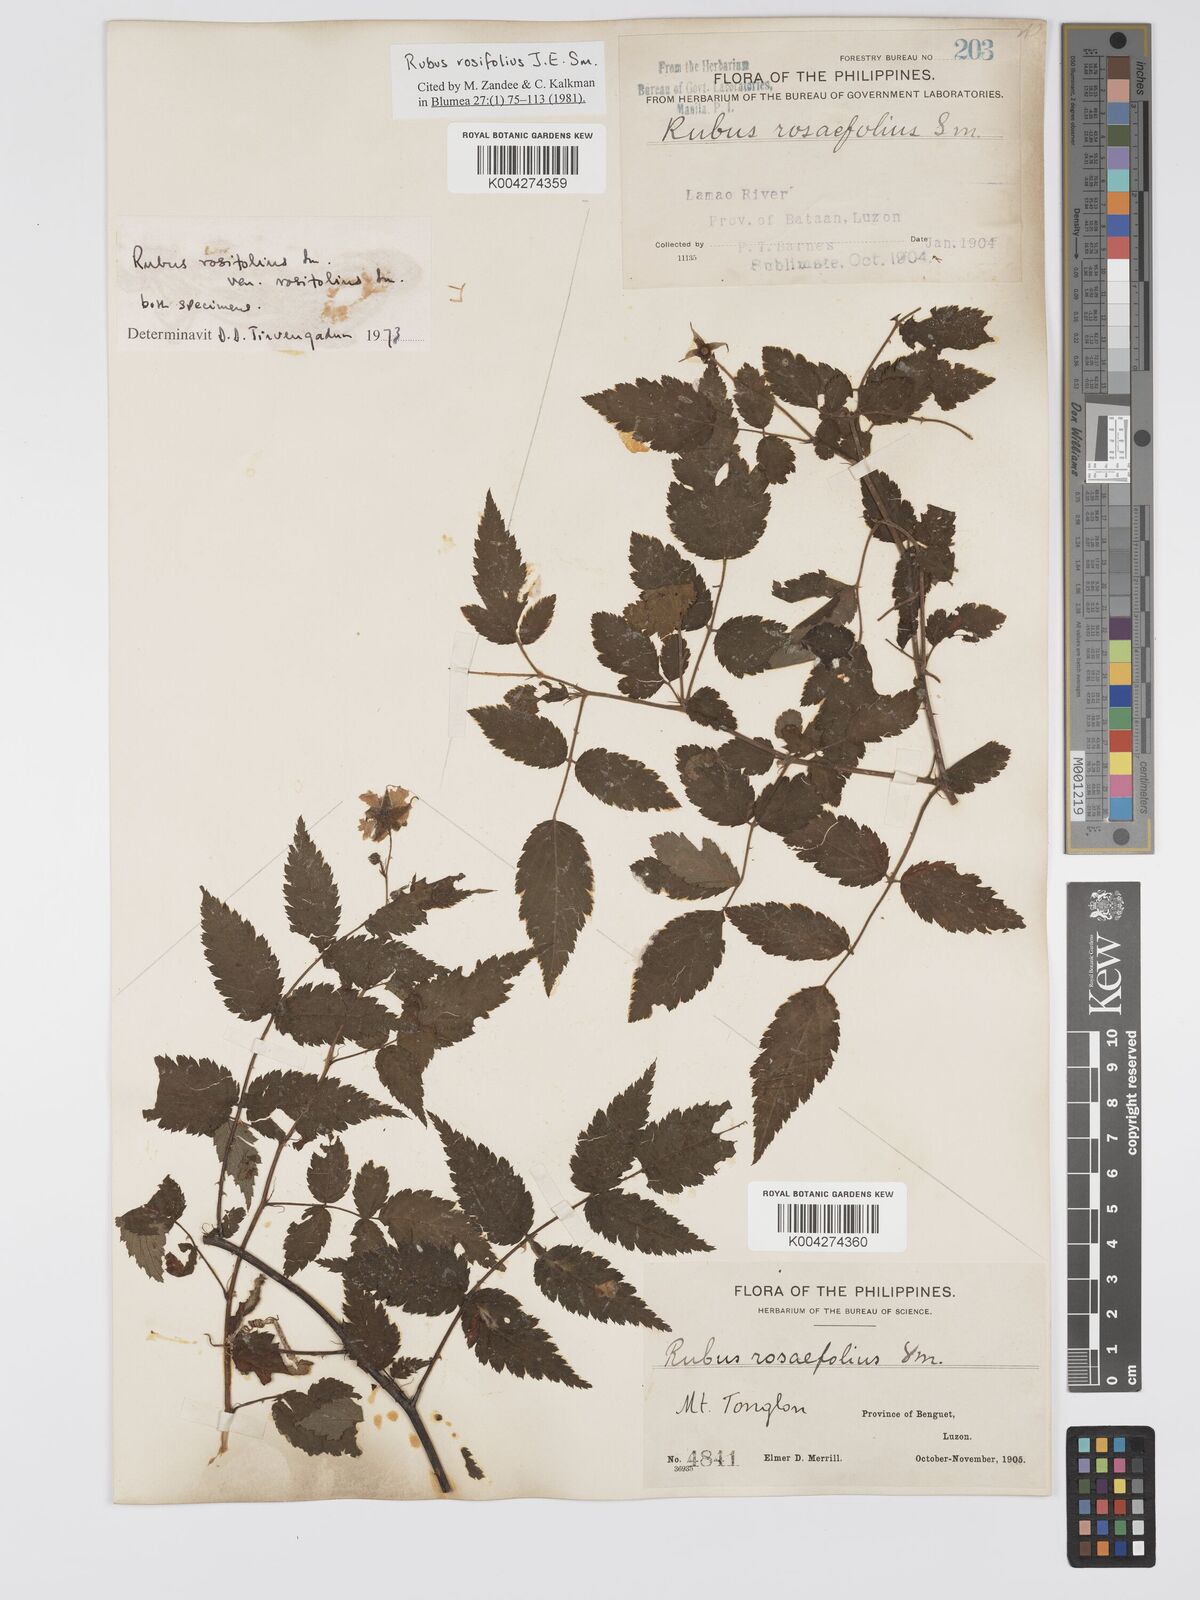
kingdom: Plantae
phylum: Tracheophyta
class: Magnoliopsida
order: Rosales
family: Rosaceae
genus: Rubus
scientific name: Rubus
